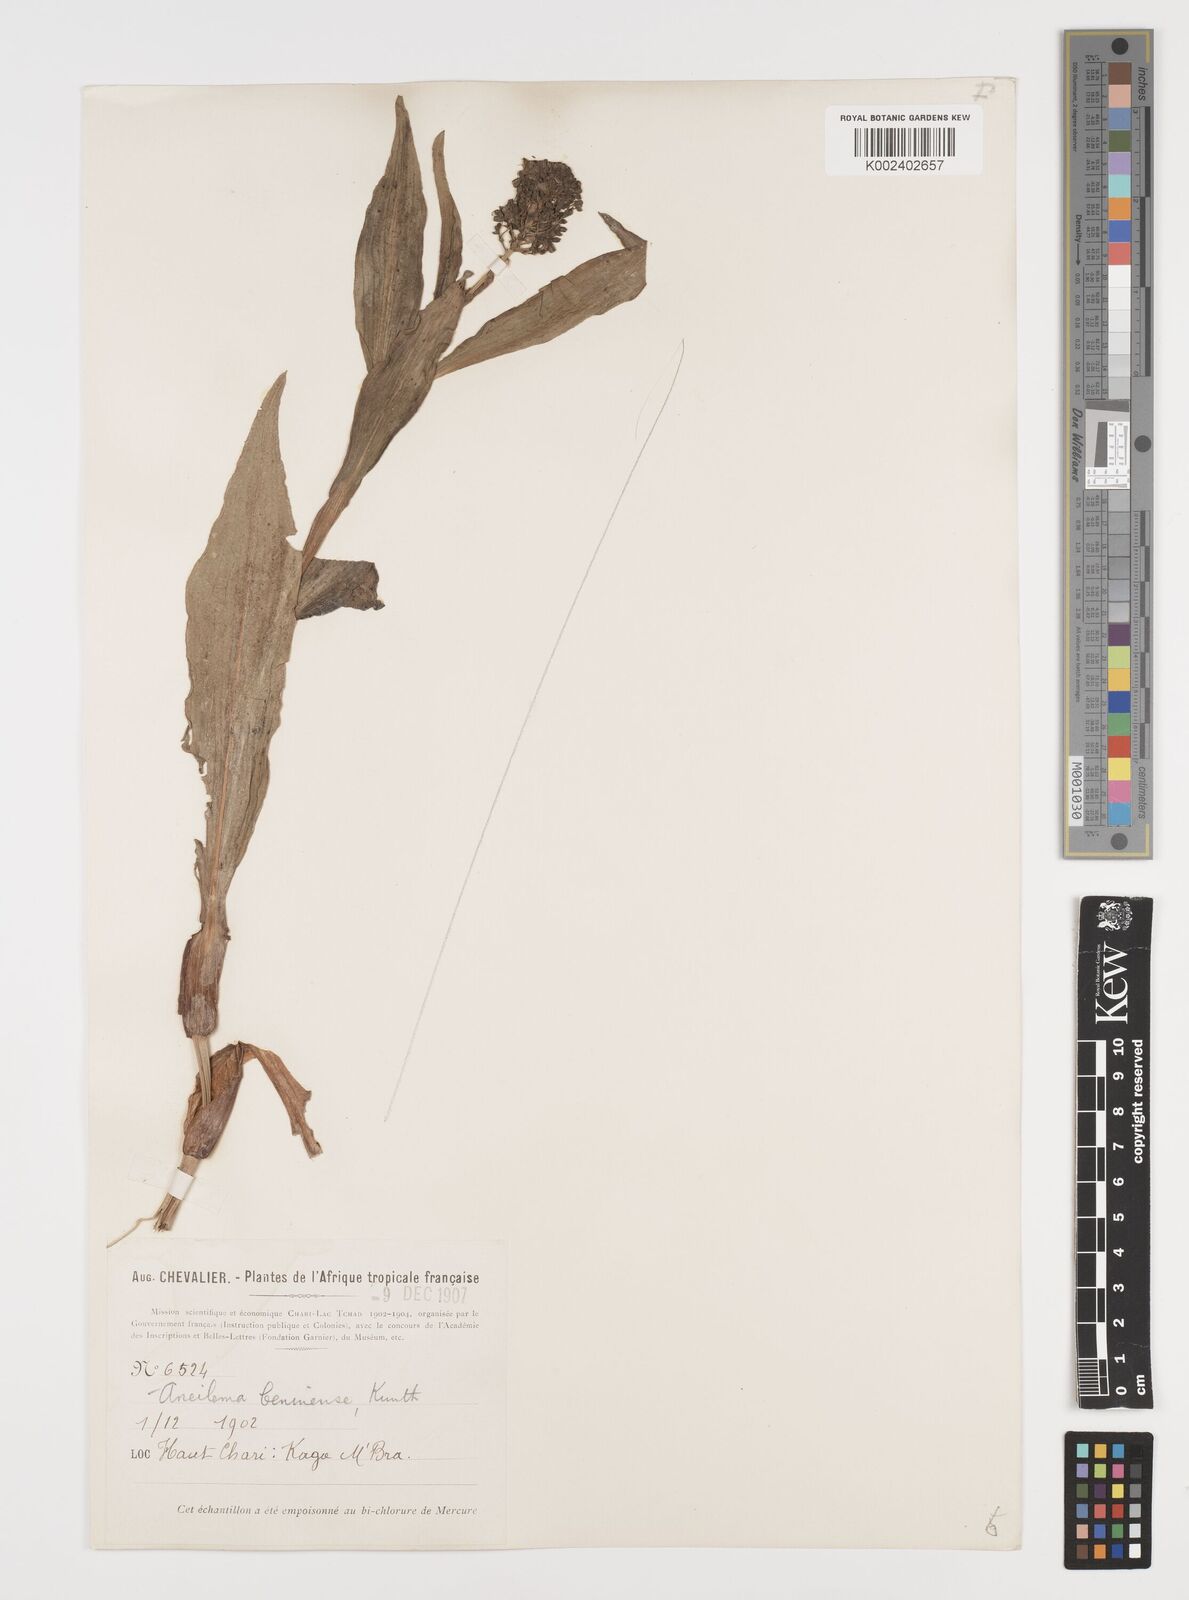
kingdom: Plantae
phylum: Tracheophyta
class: Liliopsida
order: Commelinales
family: Commelinaceae
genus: Aneilema
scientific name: Aneilema beniniense
